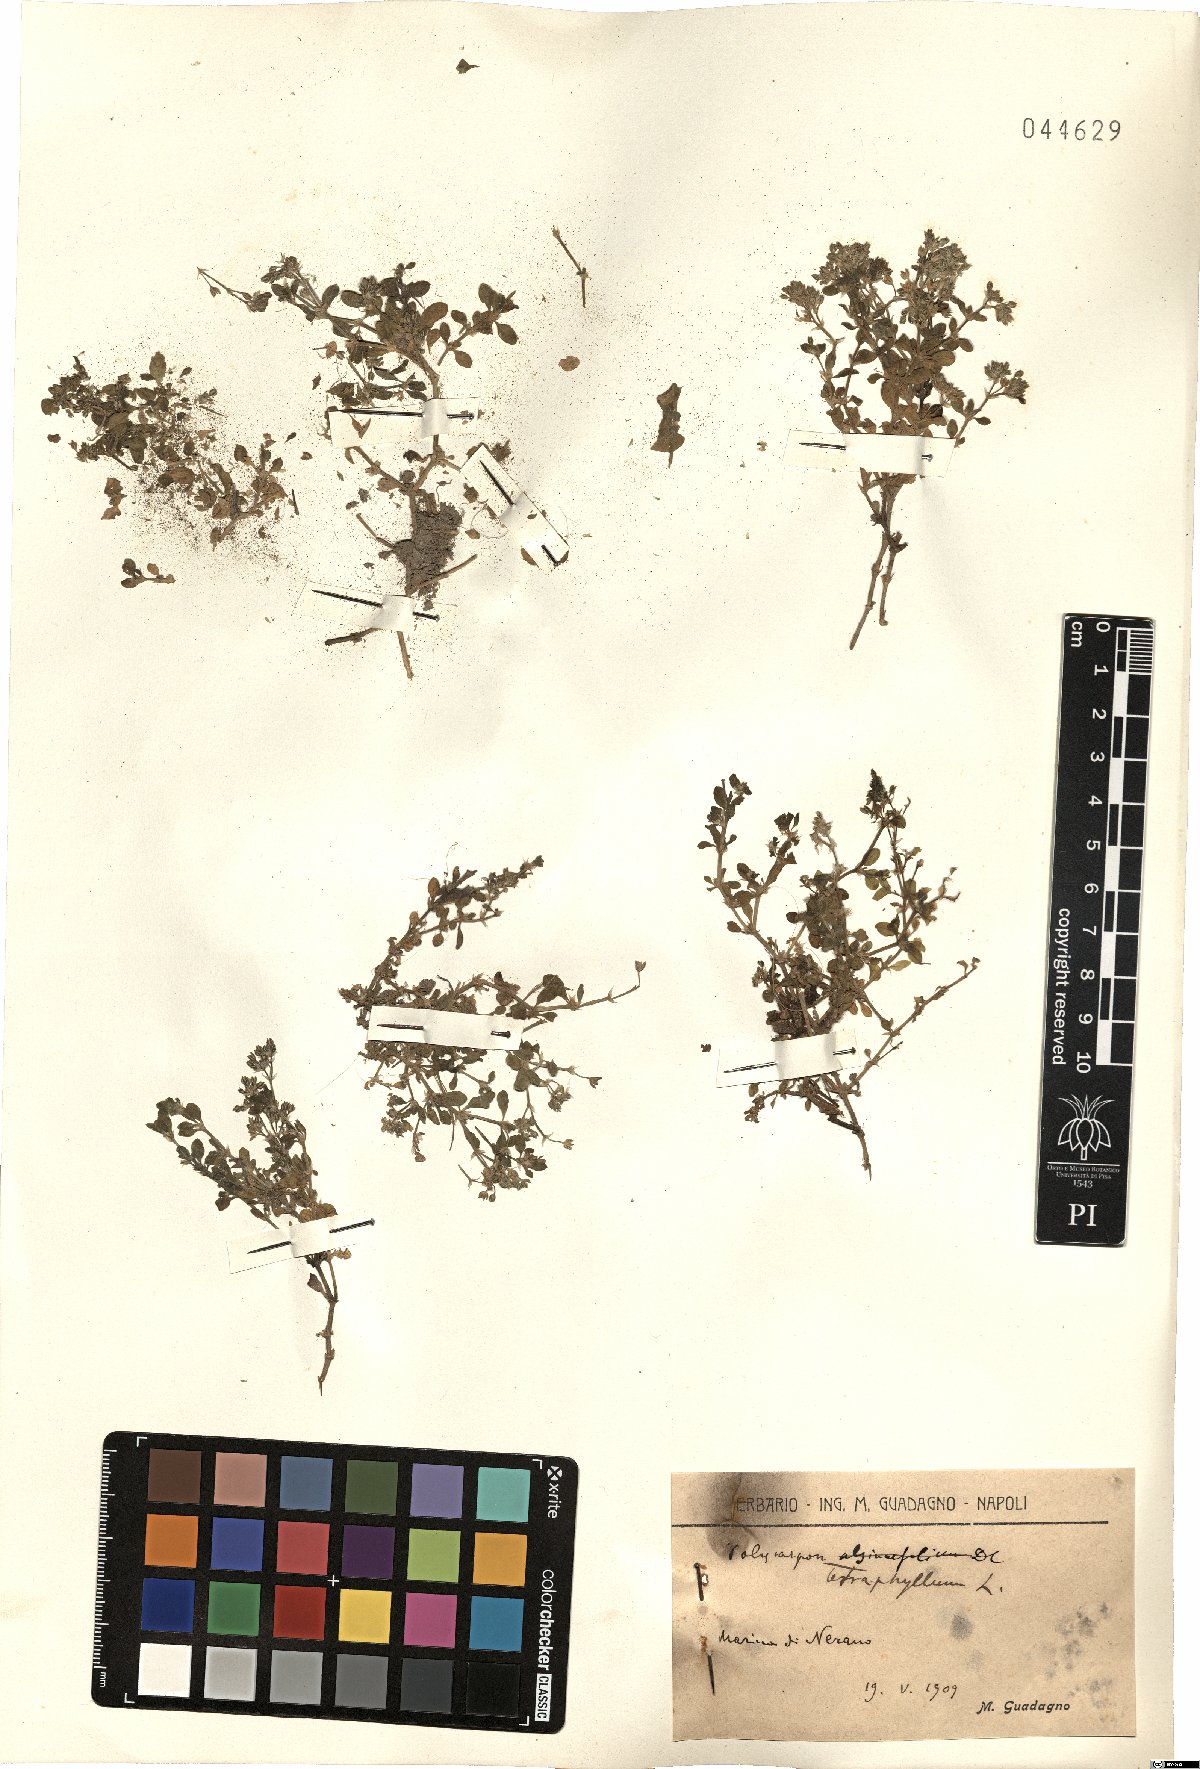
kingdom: Plantae
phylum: Tracheophyta
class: Magnoliopsida
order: Caryophyllales
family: Caryophyllaceae
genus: Polycarpon
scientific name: Polycarpon tetraphyllum
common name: Four-leaved all-seed
